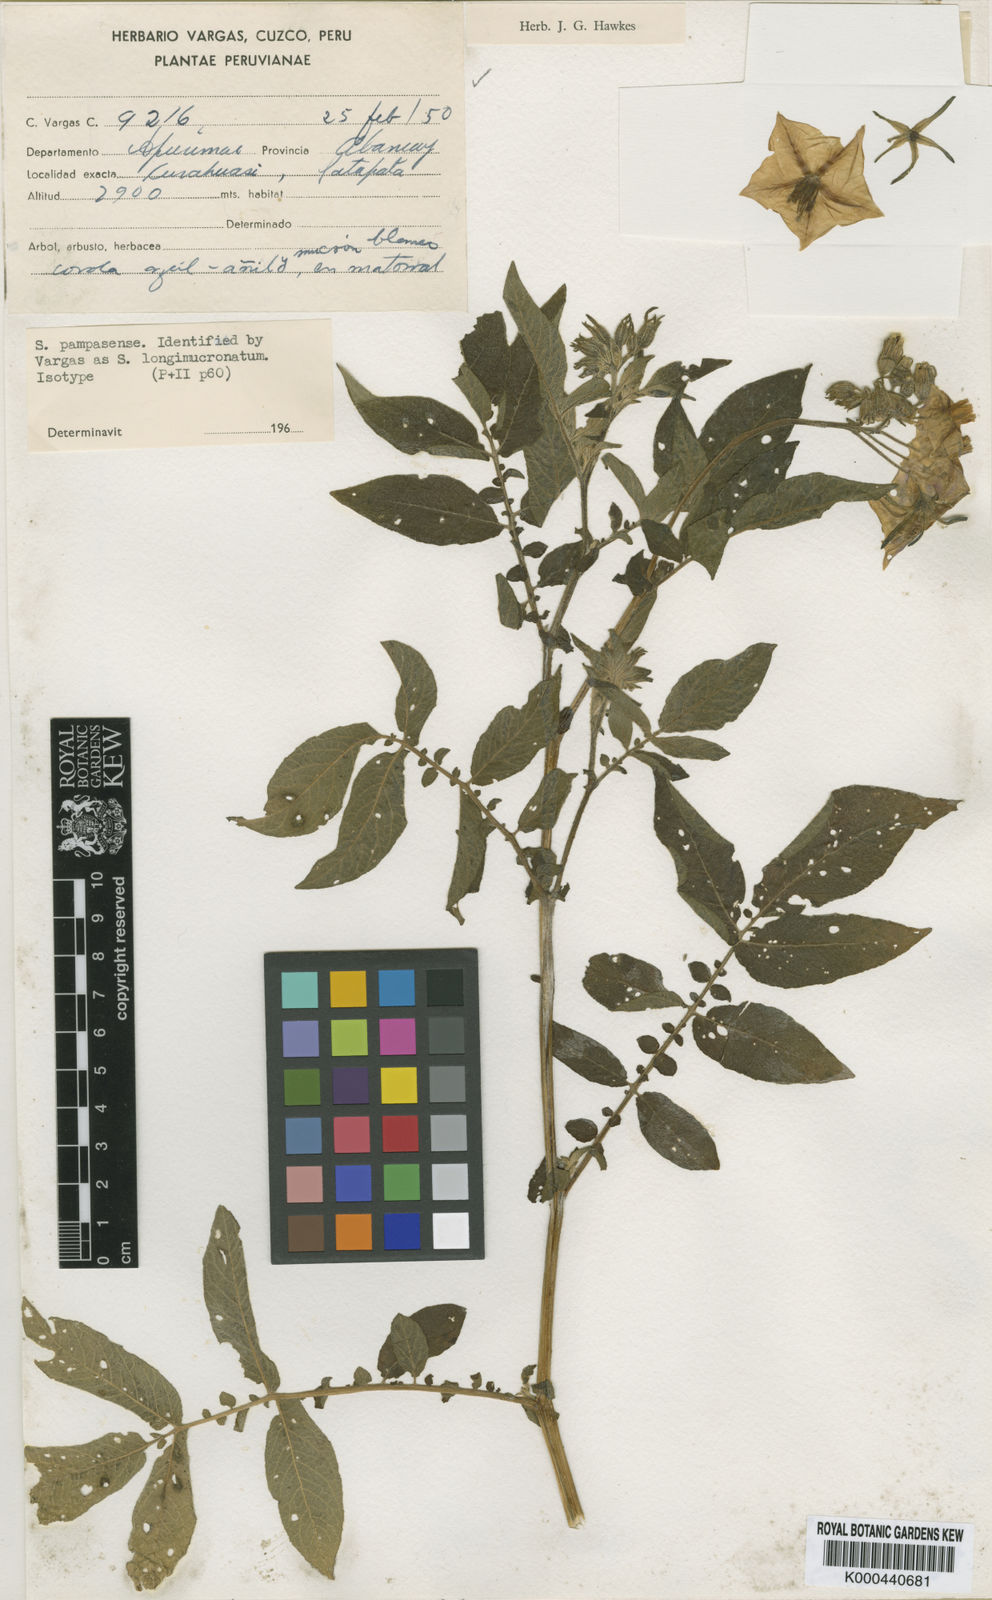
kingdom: Plantae
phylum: Tracheophyta
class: Magnoliopsida
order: Solanales
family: Solanaceae
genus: Solanum
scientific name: Solanum candolleanum
